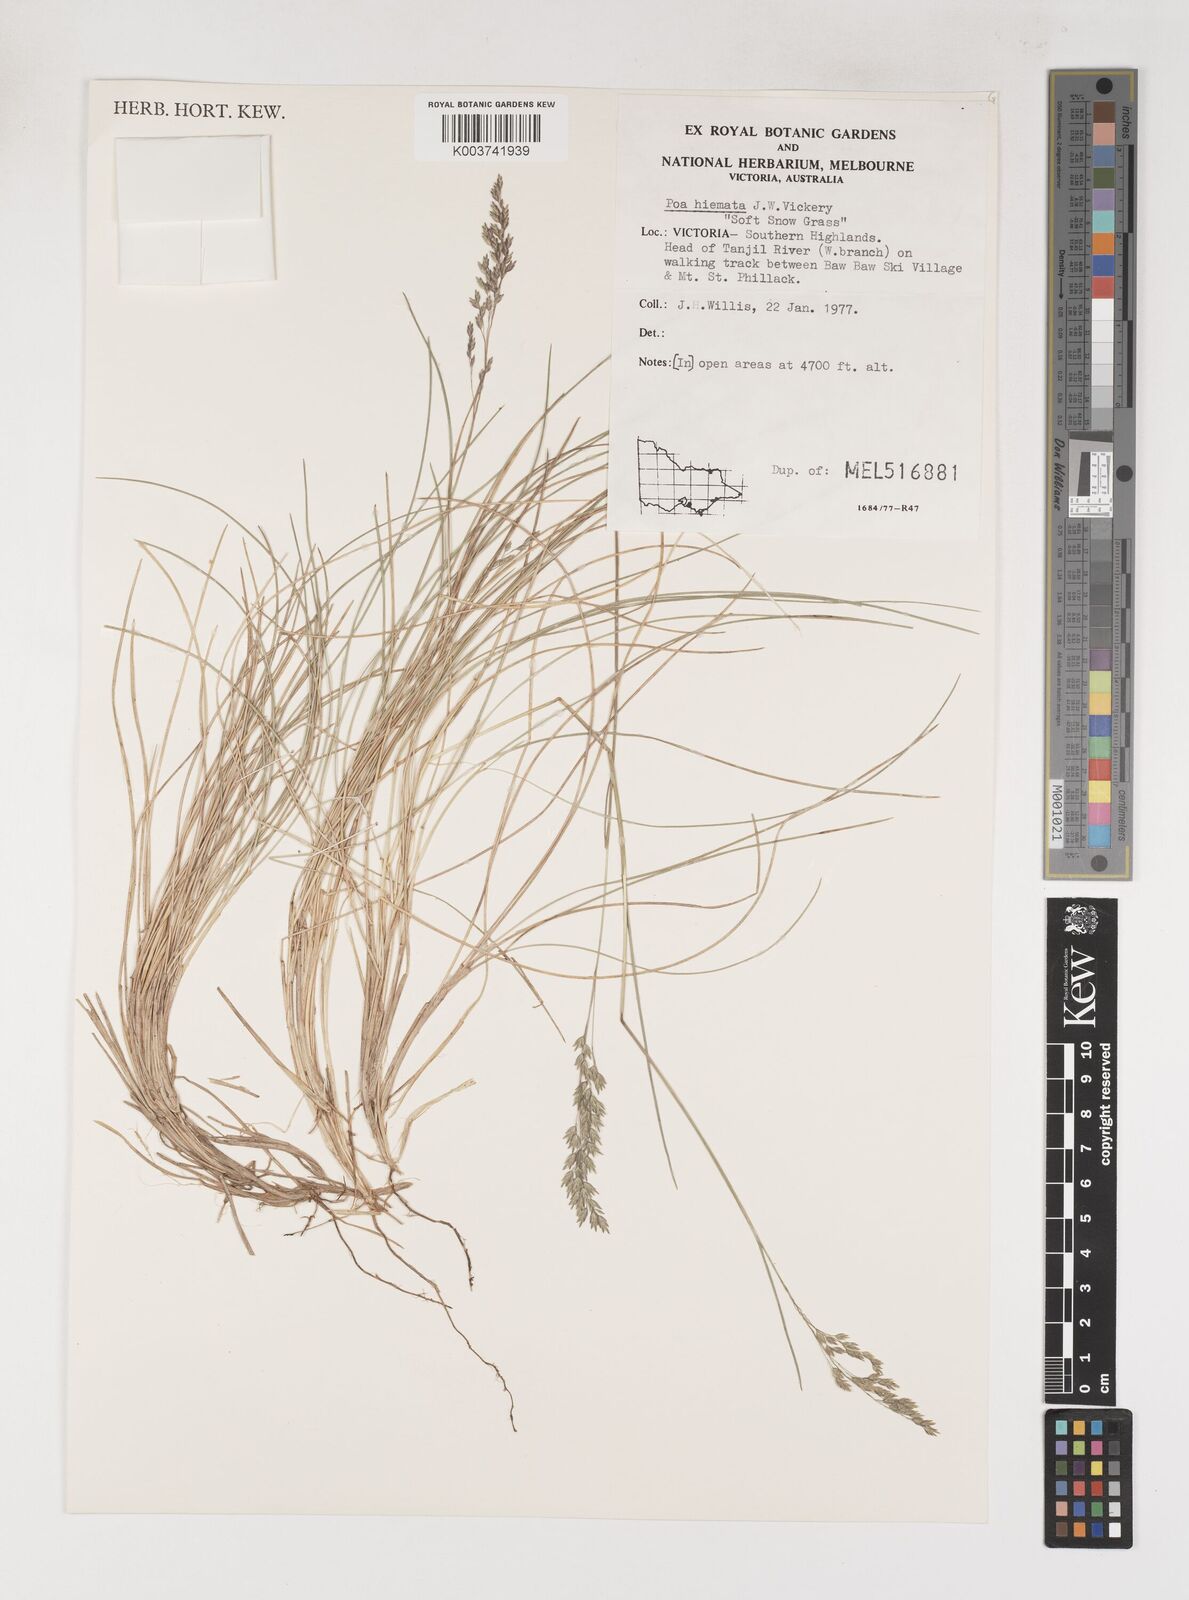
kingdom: Plantae
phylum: Tracheophyta
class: Liliopsida
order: Poales
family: Poaceae
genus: Poa
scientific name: Poa hiemata
